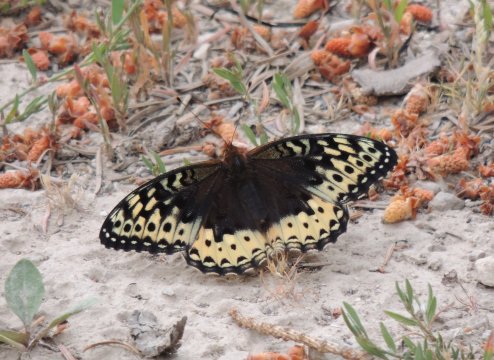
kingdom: Animalia
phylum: Arthropoda
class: Insecta
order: Lepidoptera
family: Nymphalidae
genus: Speyeria
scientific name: Speyeria cybele
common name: Great Spangled Fritillary
